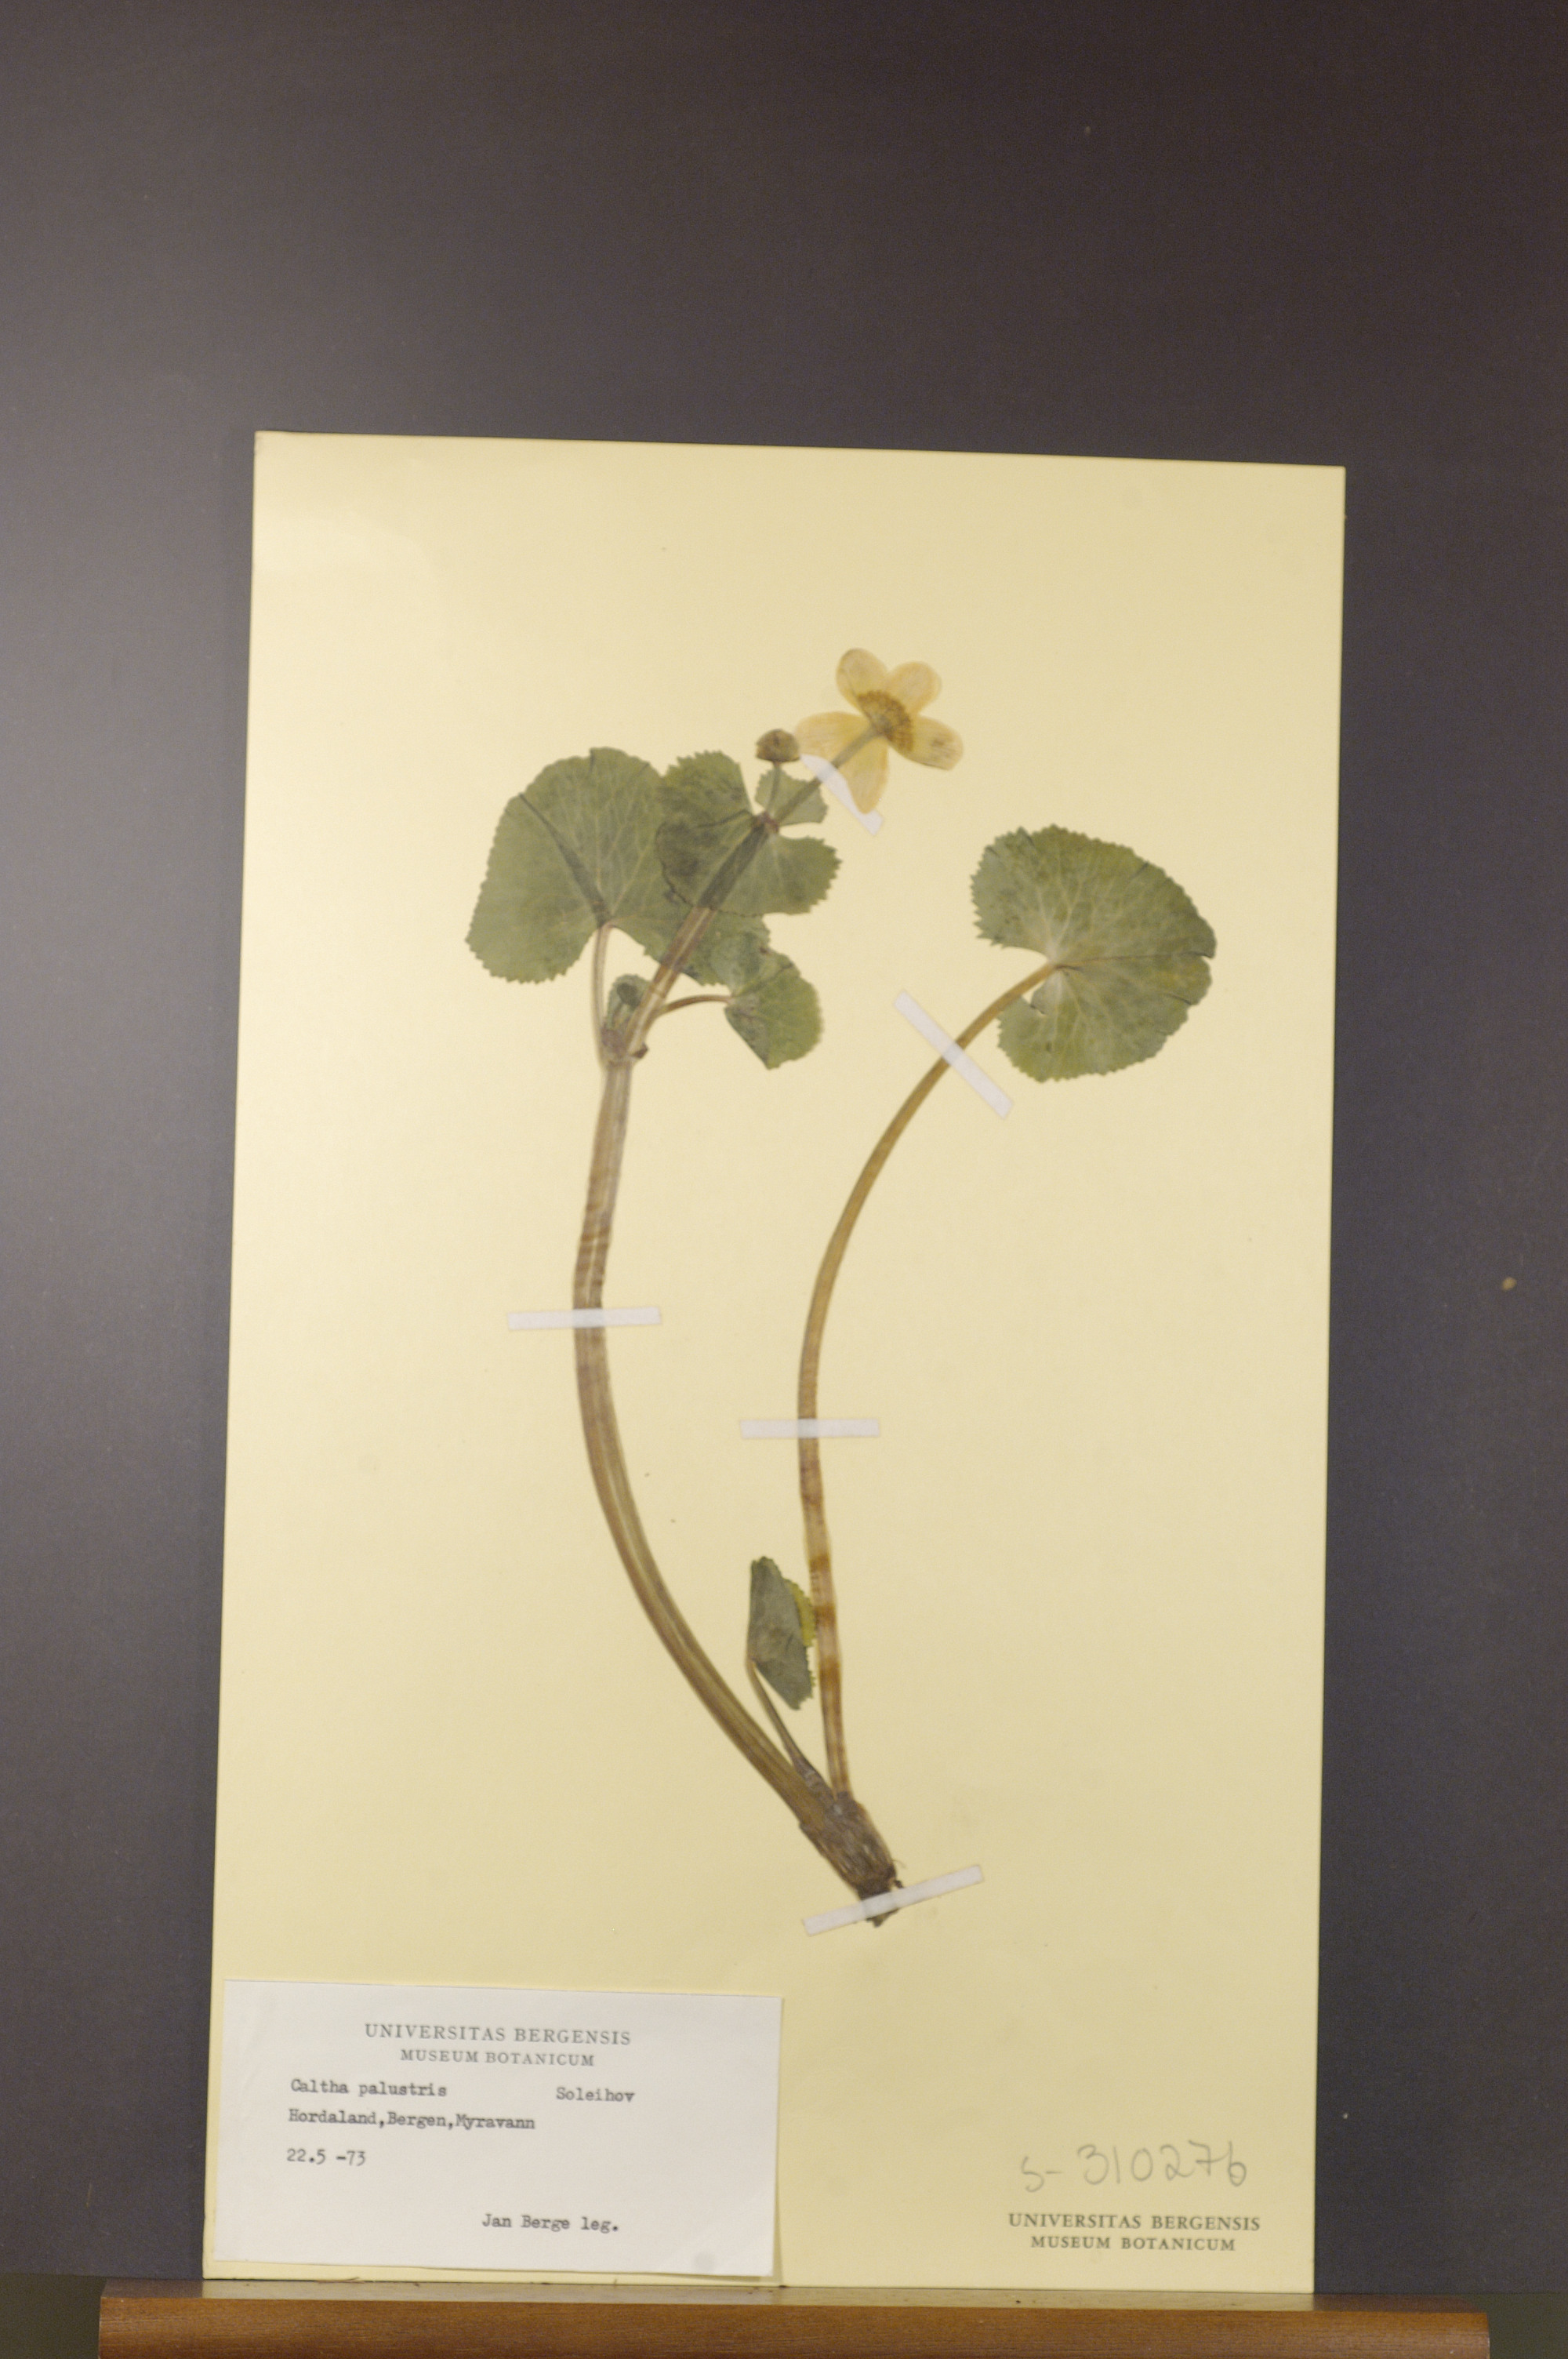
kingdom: Plantae
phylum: Tracheophyta
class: Magnoliopsida
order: Ranunculales
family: Ranunculaceae
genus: Caltha
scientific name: Caltha palustris
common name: Marsh marigold
